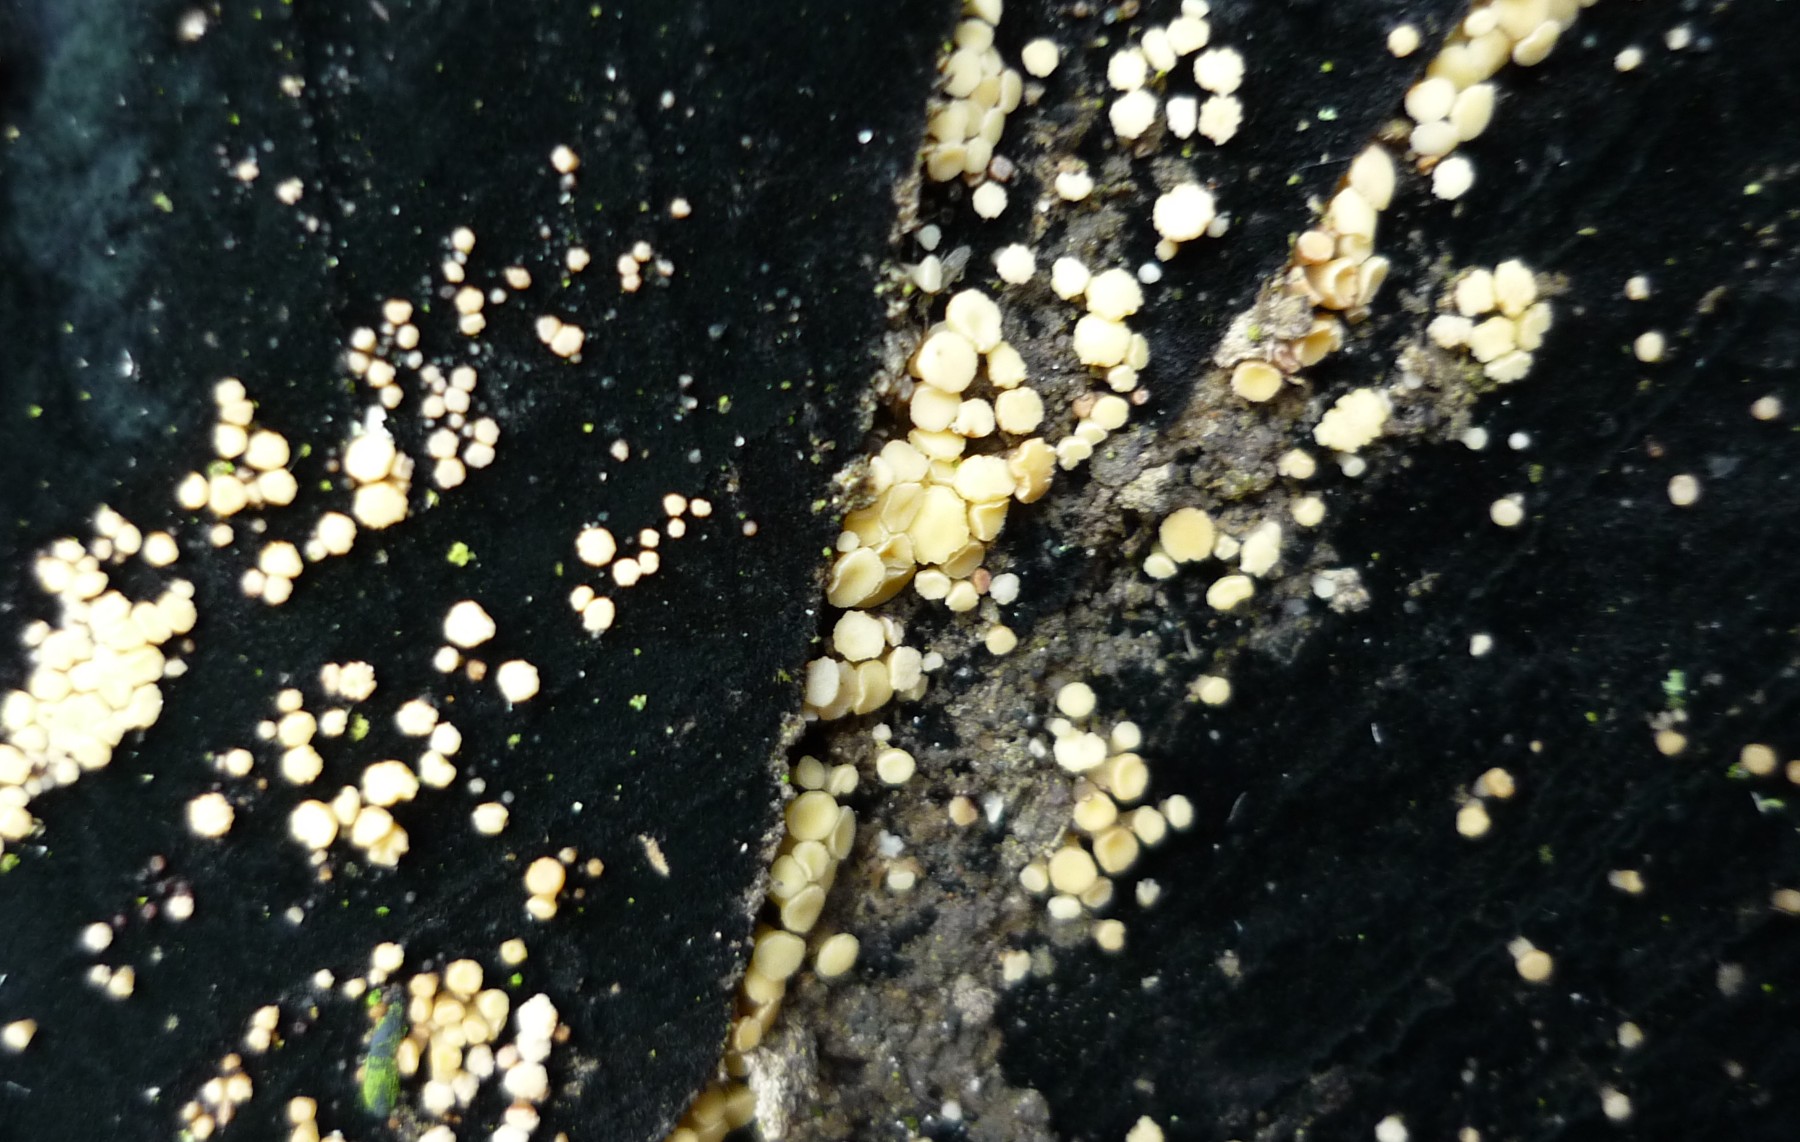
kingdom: Fungi
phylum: Ascomycota
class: Leotiomycetes
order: Helotiales
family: Helotiaceae
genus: Bispora
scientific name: Bispora pallescens
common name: måtte-snitskive
